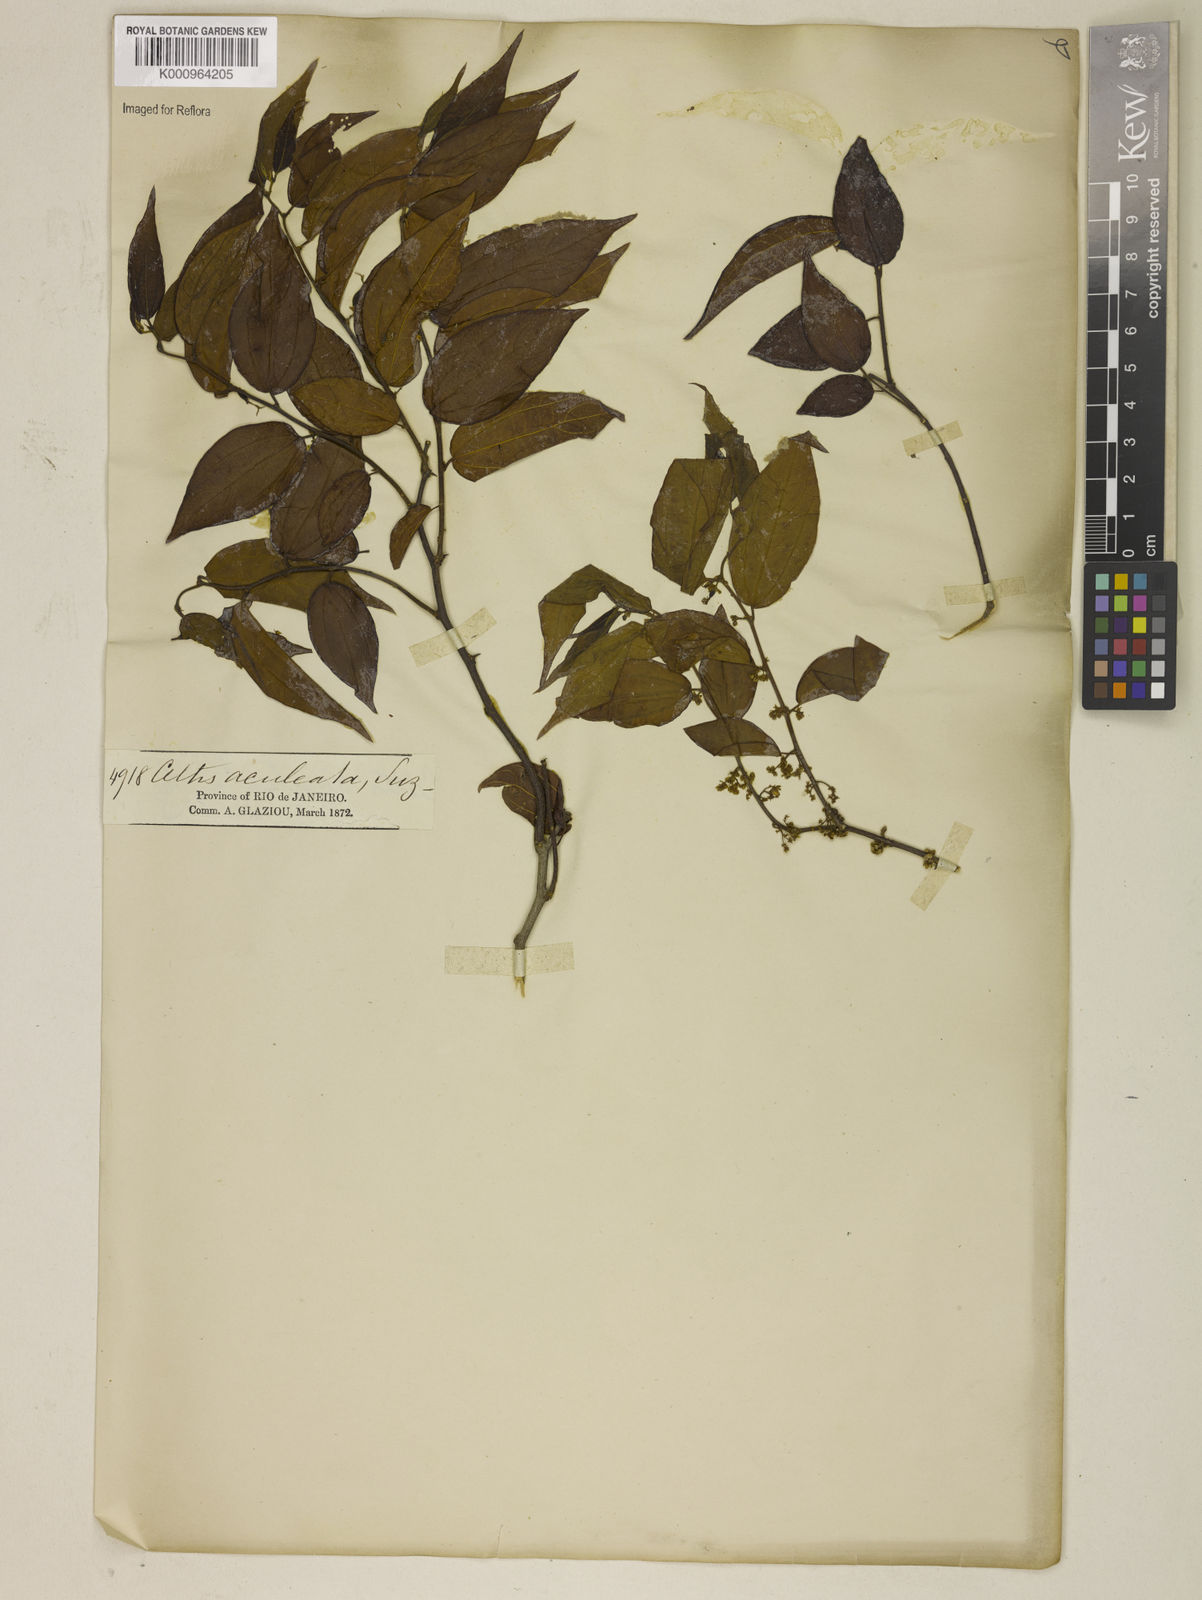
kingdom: Plantae
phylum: Tracheophyta
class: Magnoliopsida
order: Rosales
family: Cannabaceae
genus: Celtis
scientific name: Celtis iguanaea
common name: Iguana hackberry
